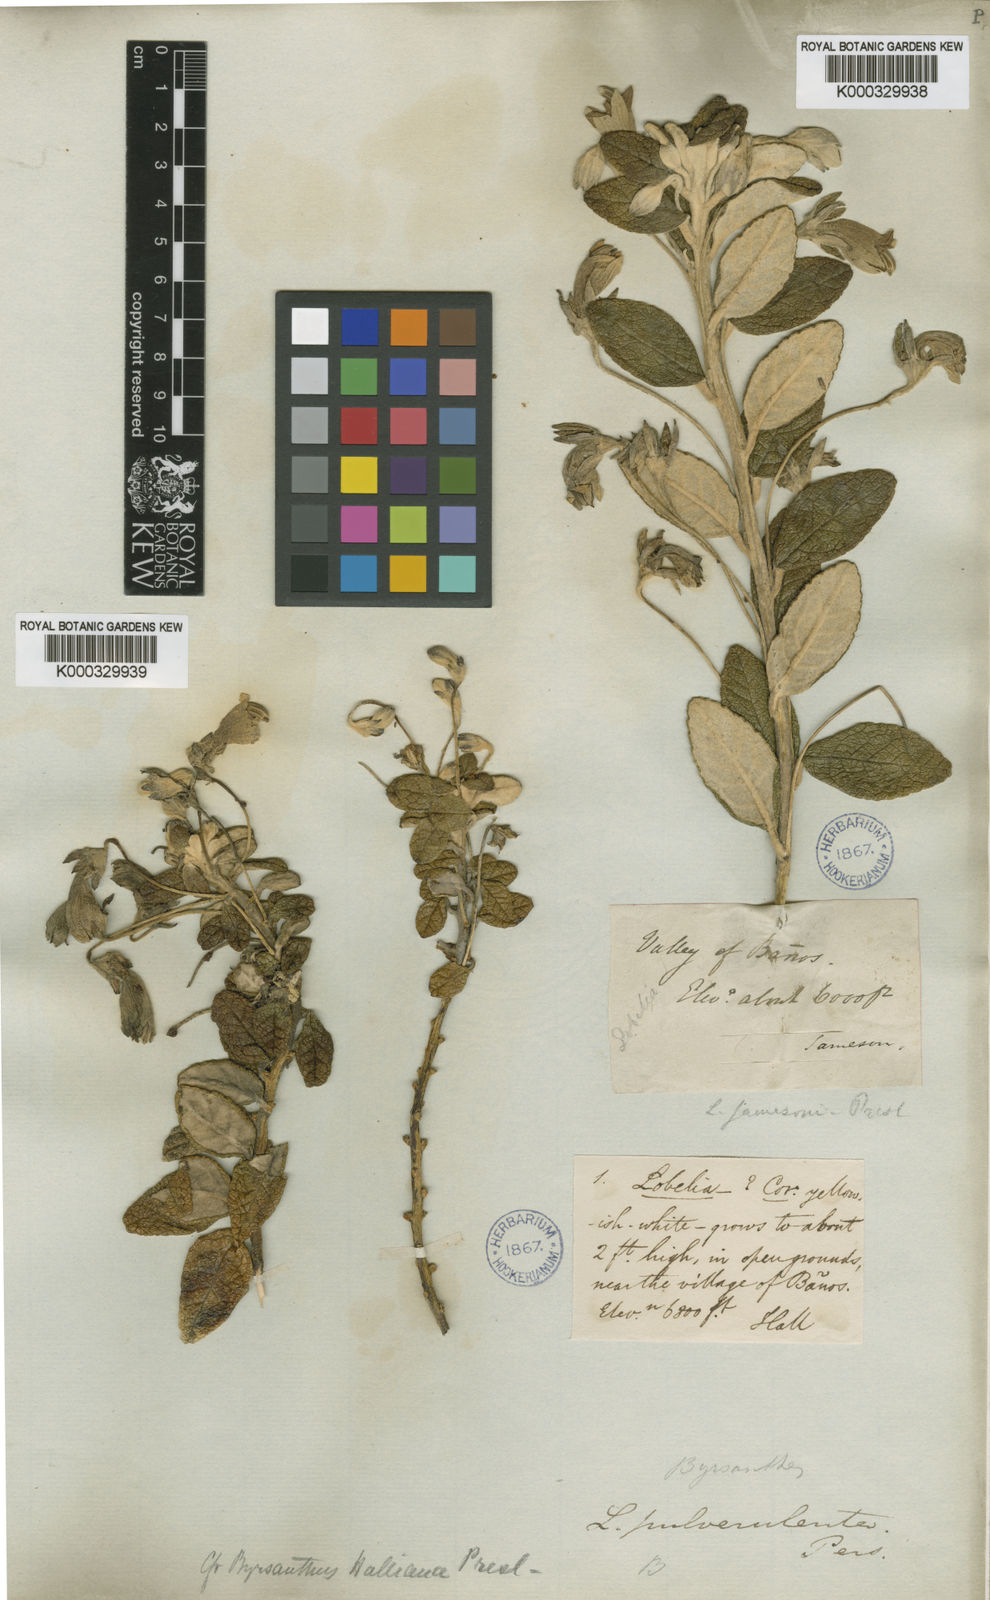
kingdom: Plantae
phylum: Tracheophyta
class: Magnoliopsida
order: Asterales
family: Campanulaceae
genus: Siphocampylus
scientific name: Siphocampylus affinis
